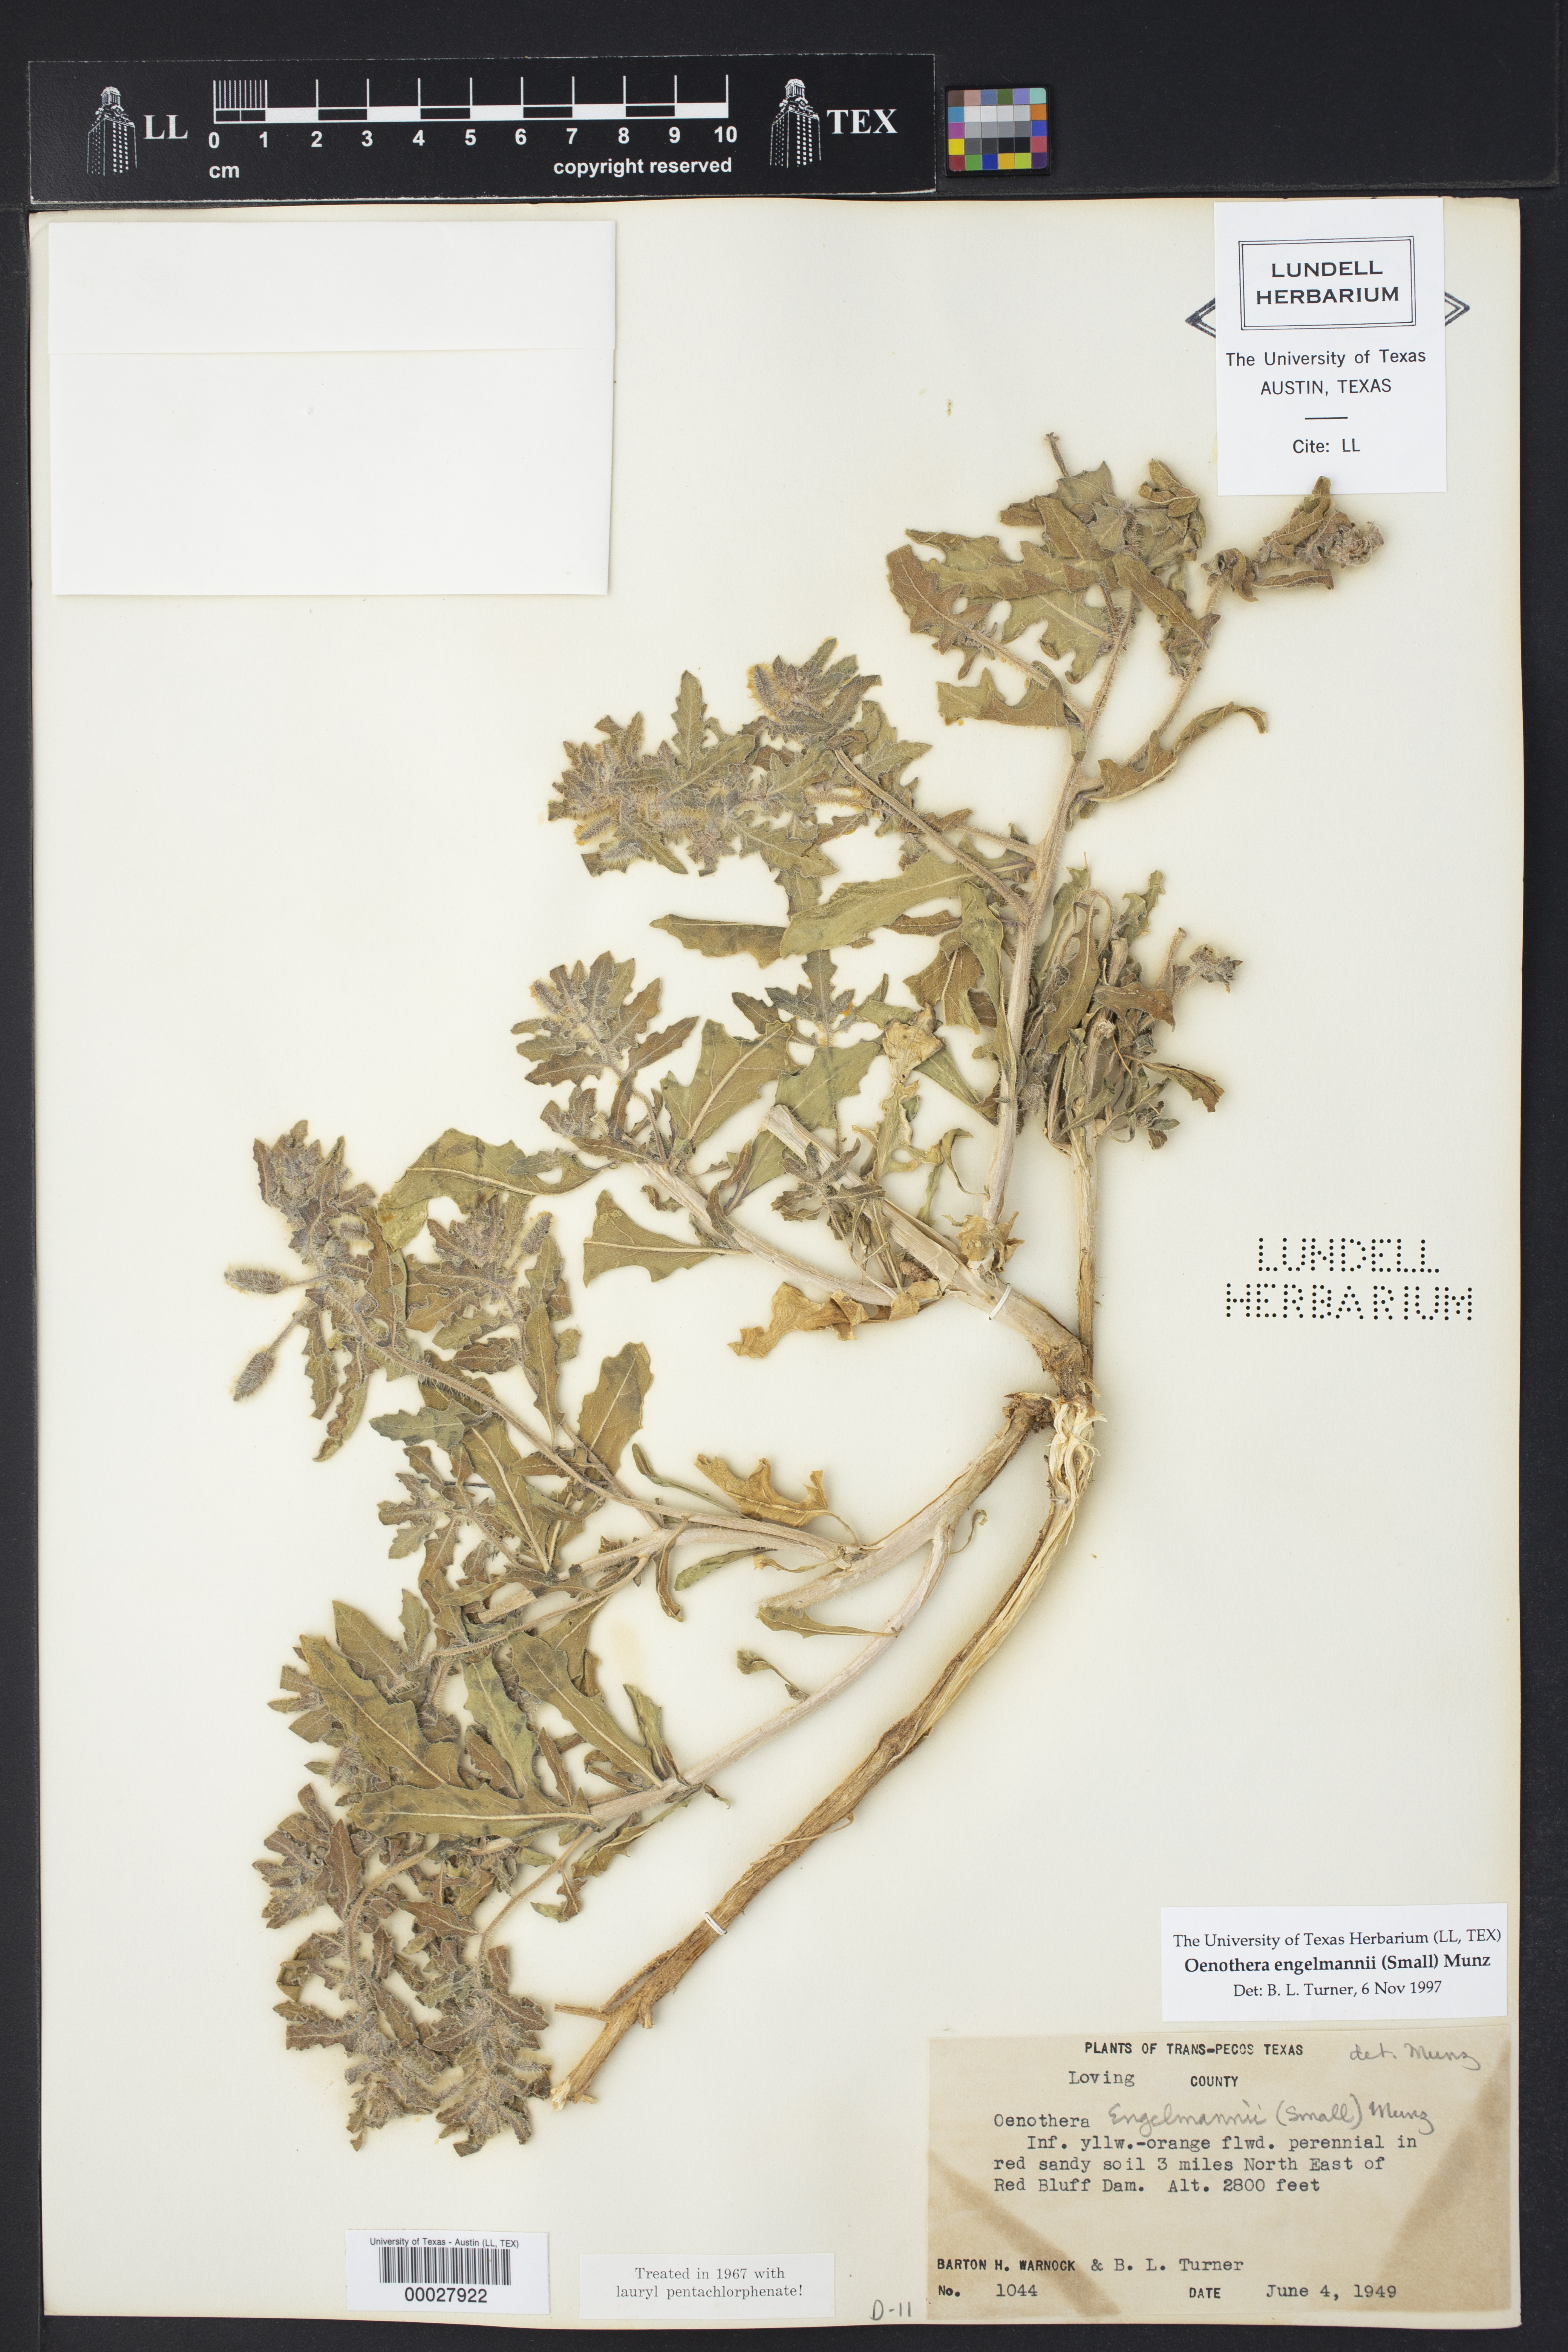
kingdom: Plantae
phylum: Tracheophyta
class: Magnoliopsida
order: Myrtales
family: Onagraceae
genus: Oenothera
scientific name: Oenothera engelmannii
